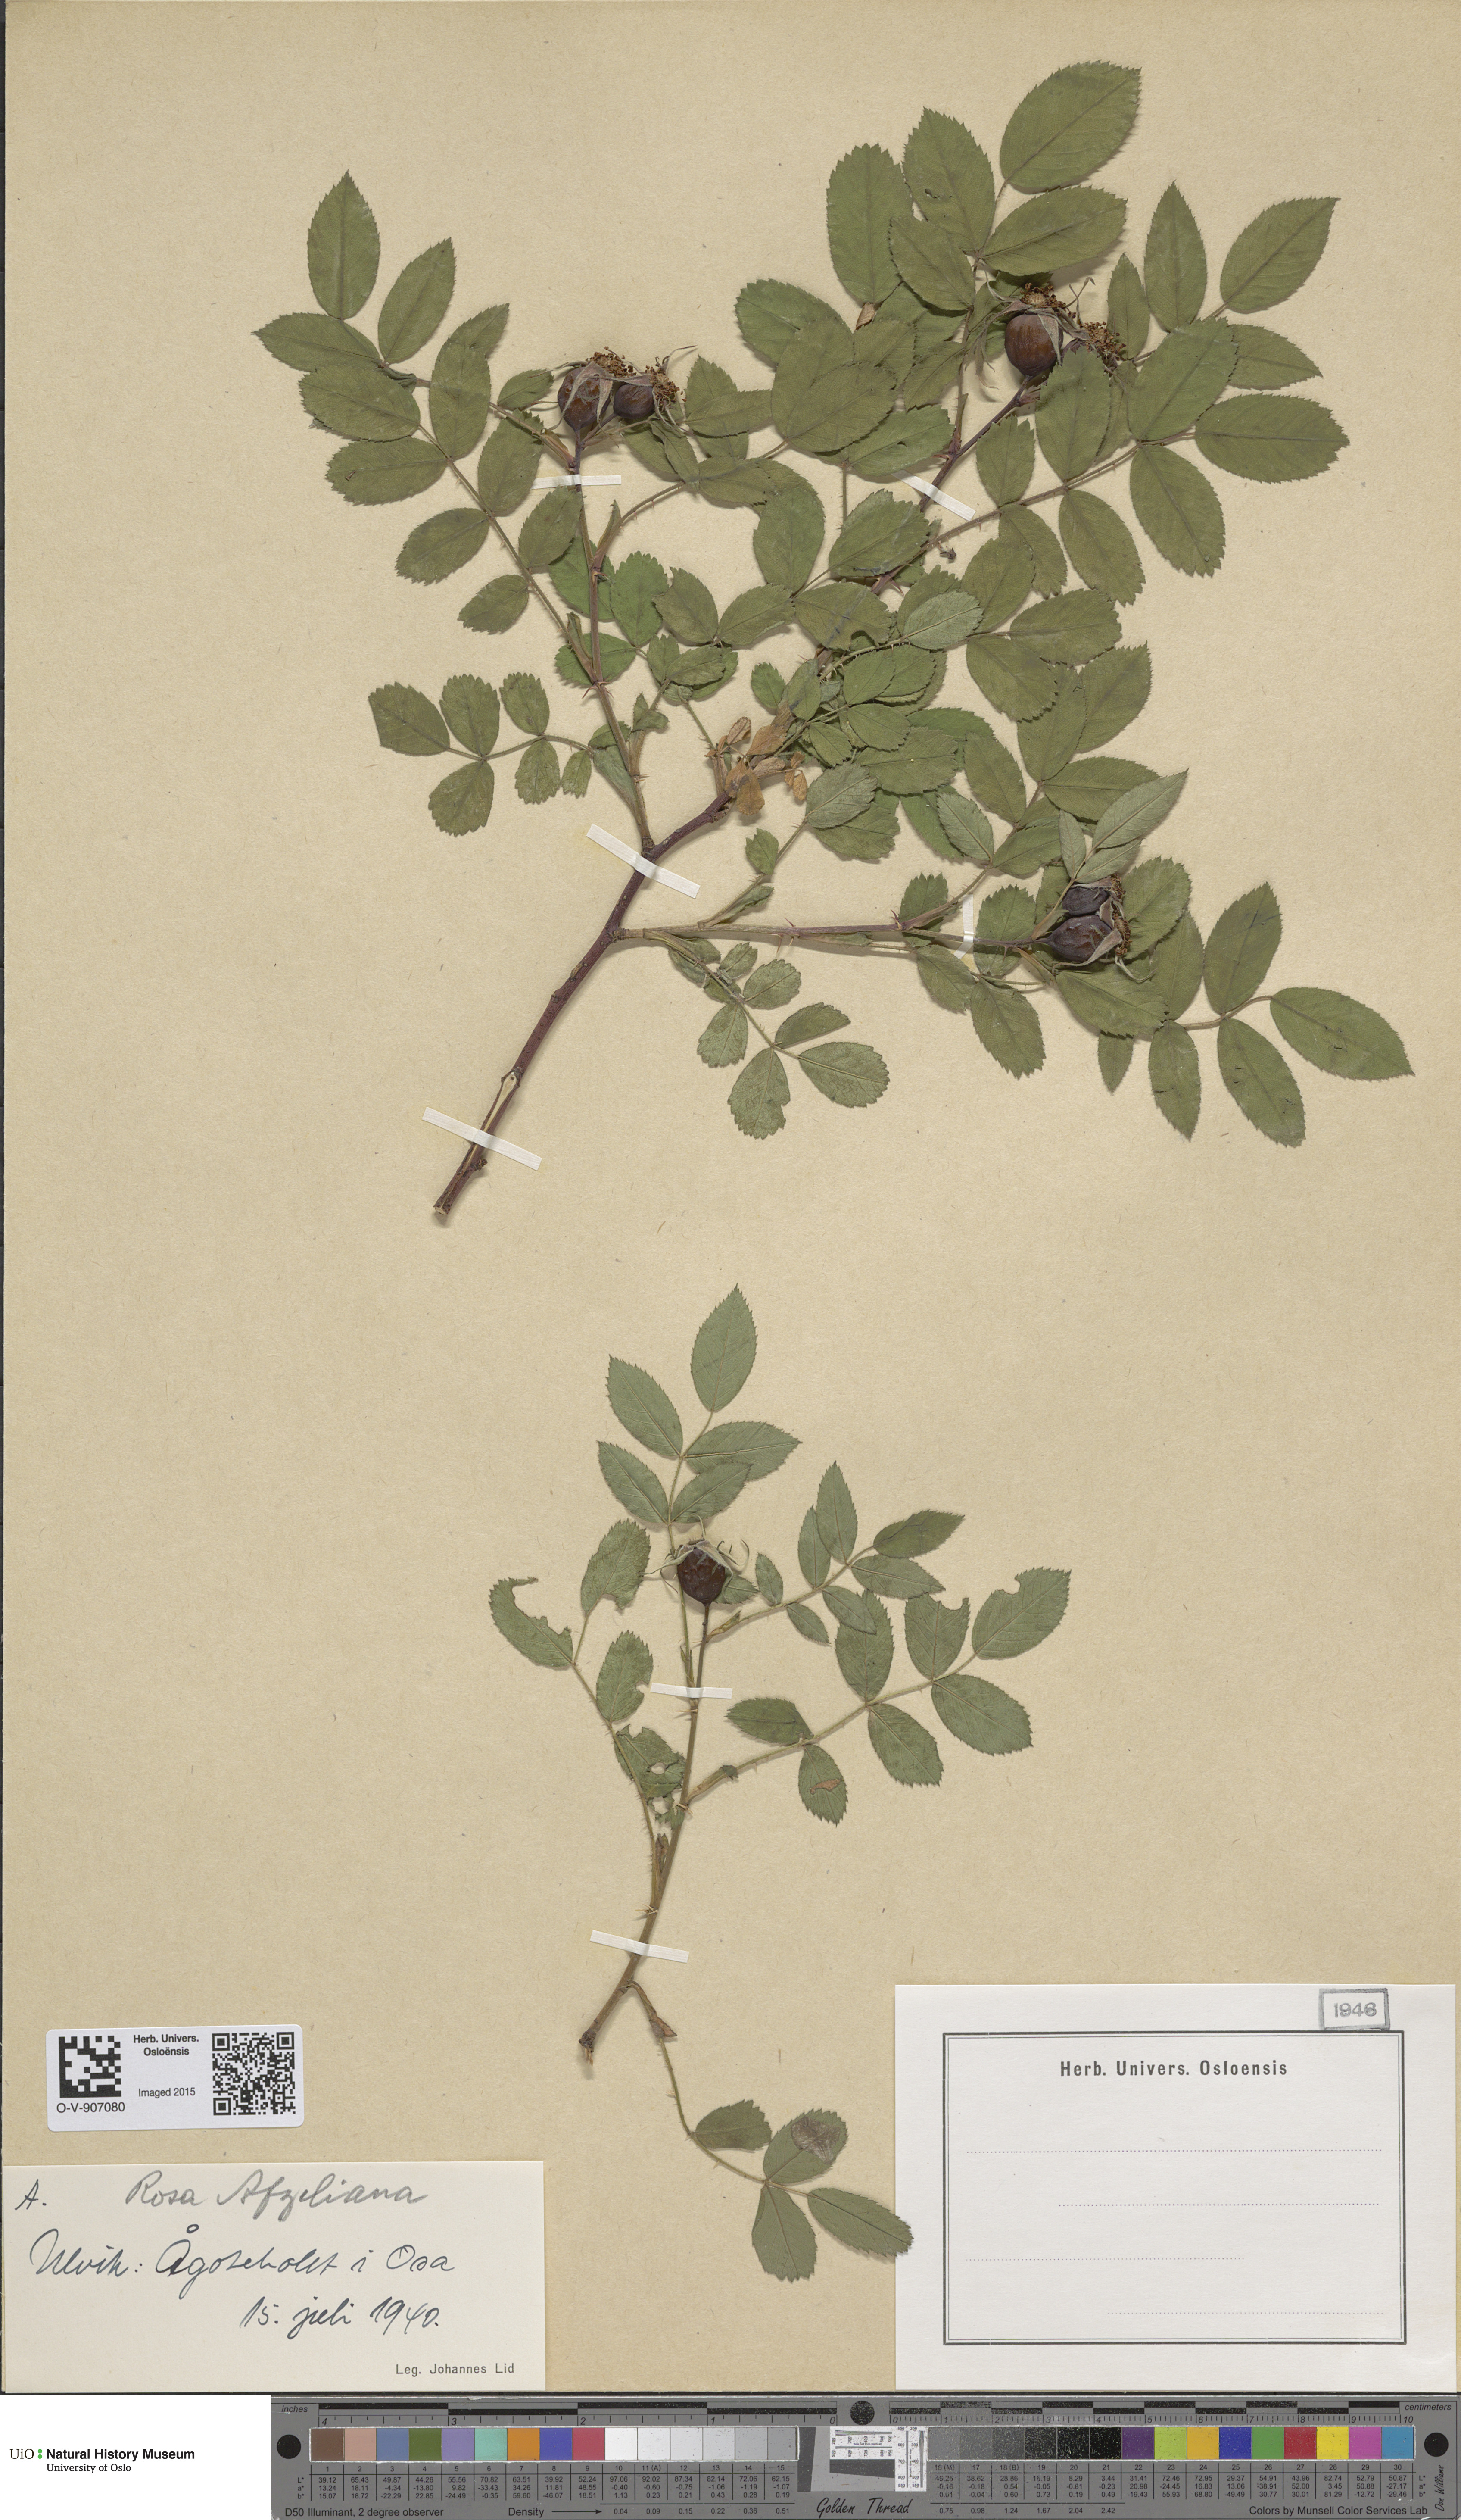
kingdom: Plantae
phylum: Tracheophyta
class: Magnoliopsida
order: Rosales
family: Rosaceae
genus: Rosa
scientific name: Rosa
